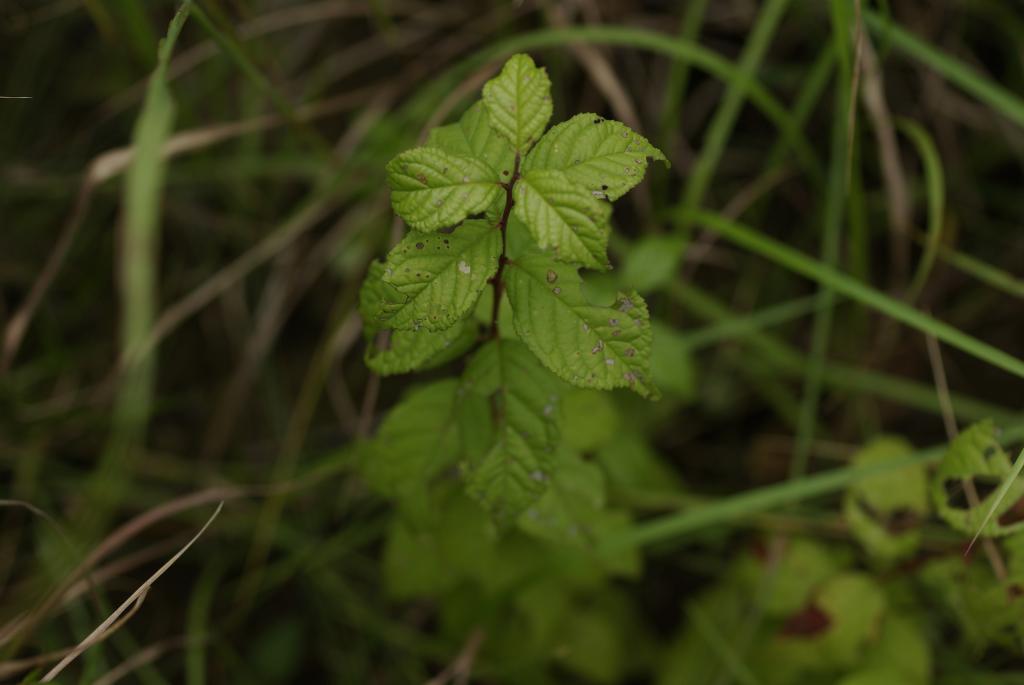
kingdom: Plantae
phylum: Tracheophyta
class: Magnoliopsida
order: Rosales
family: Rosaceae
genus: Prunus
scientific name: Prunus japonica
